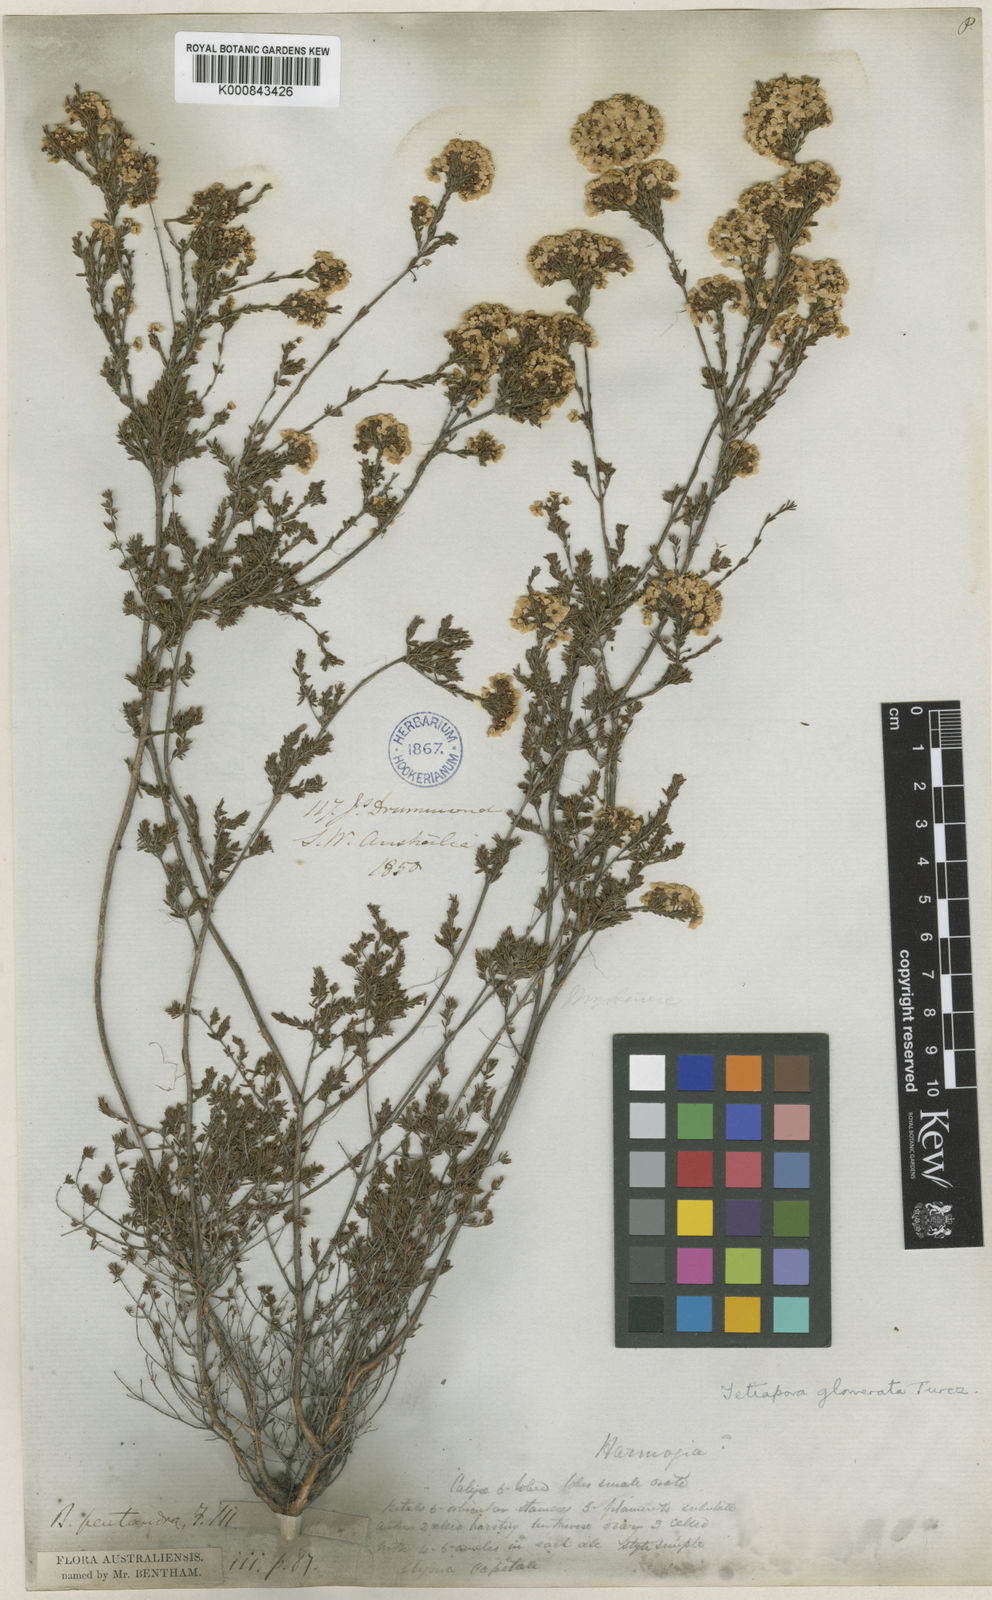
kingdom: Plantae
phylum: Tracheophyta
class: Magnoliopsida
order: Myrtales
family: Myrtaceae
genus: Baeckea
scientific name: Baeckea preissiana
